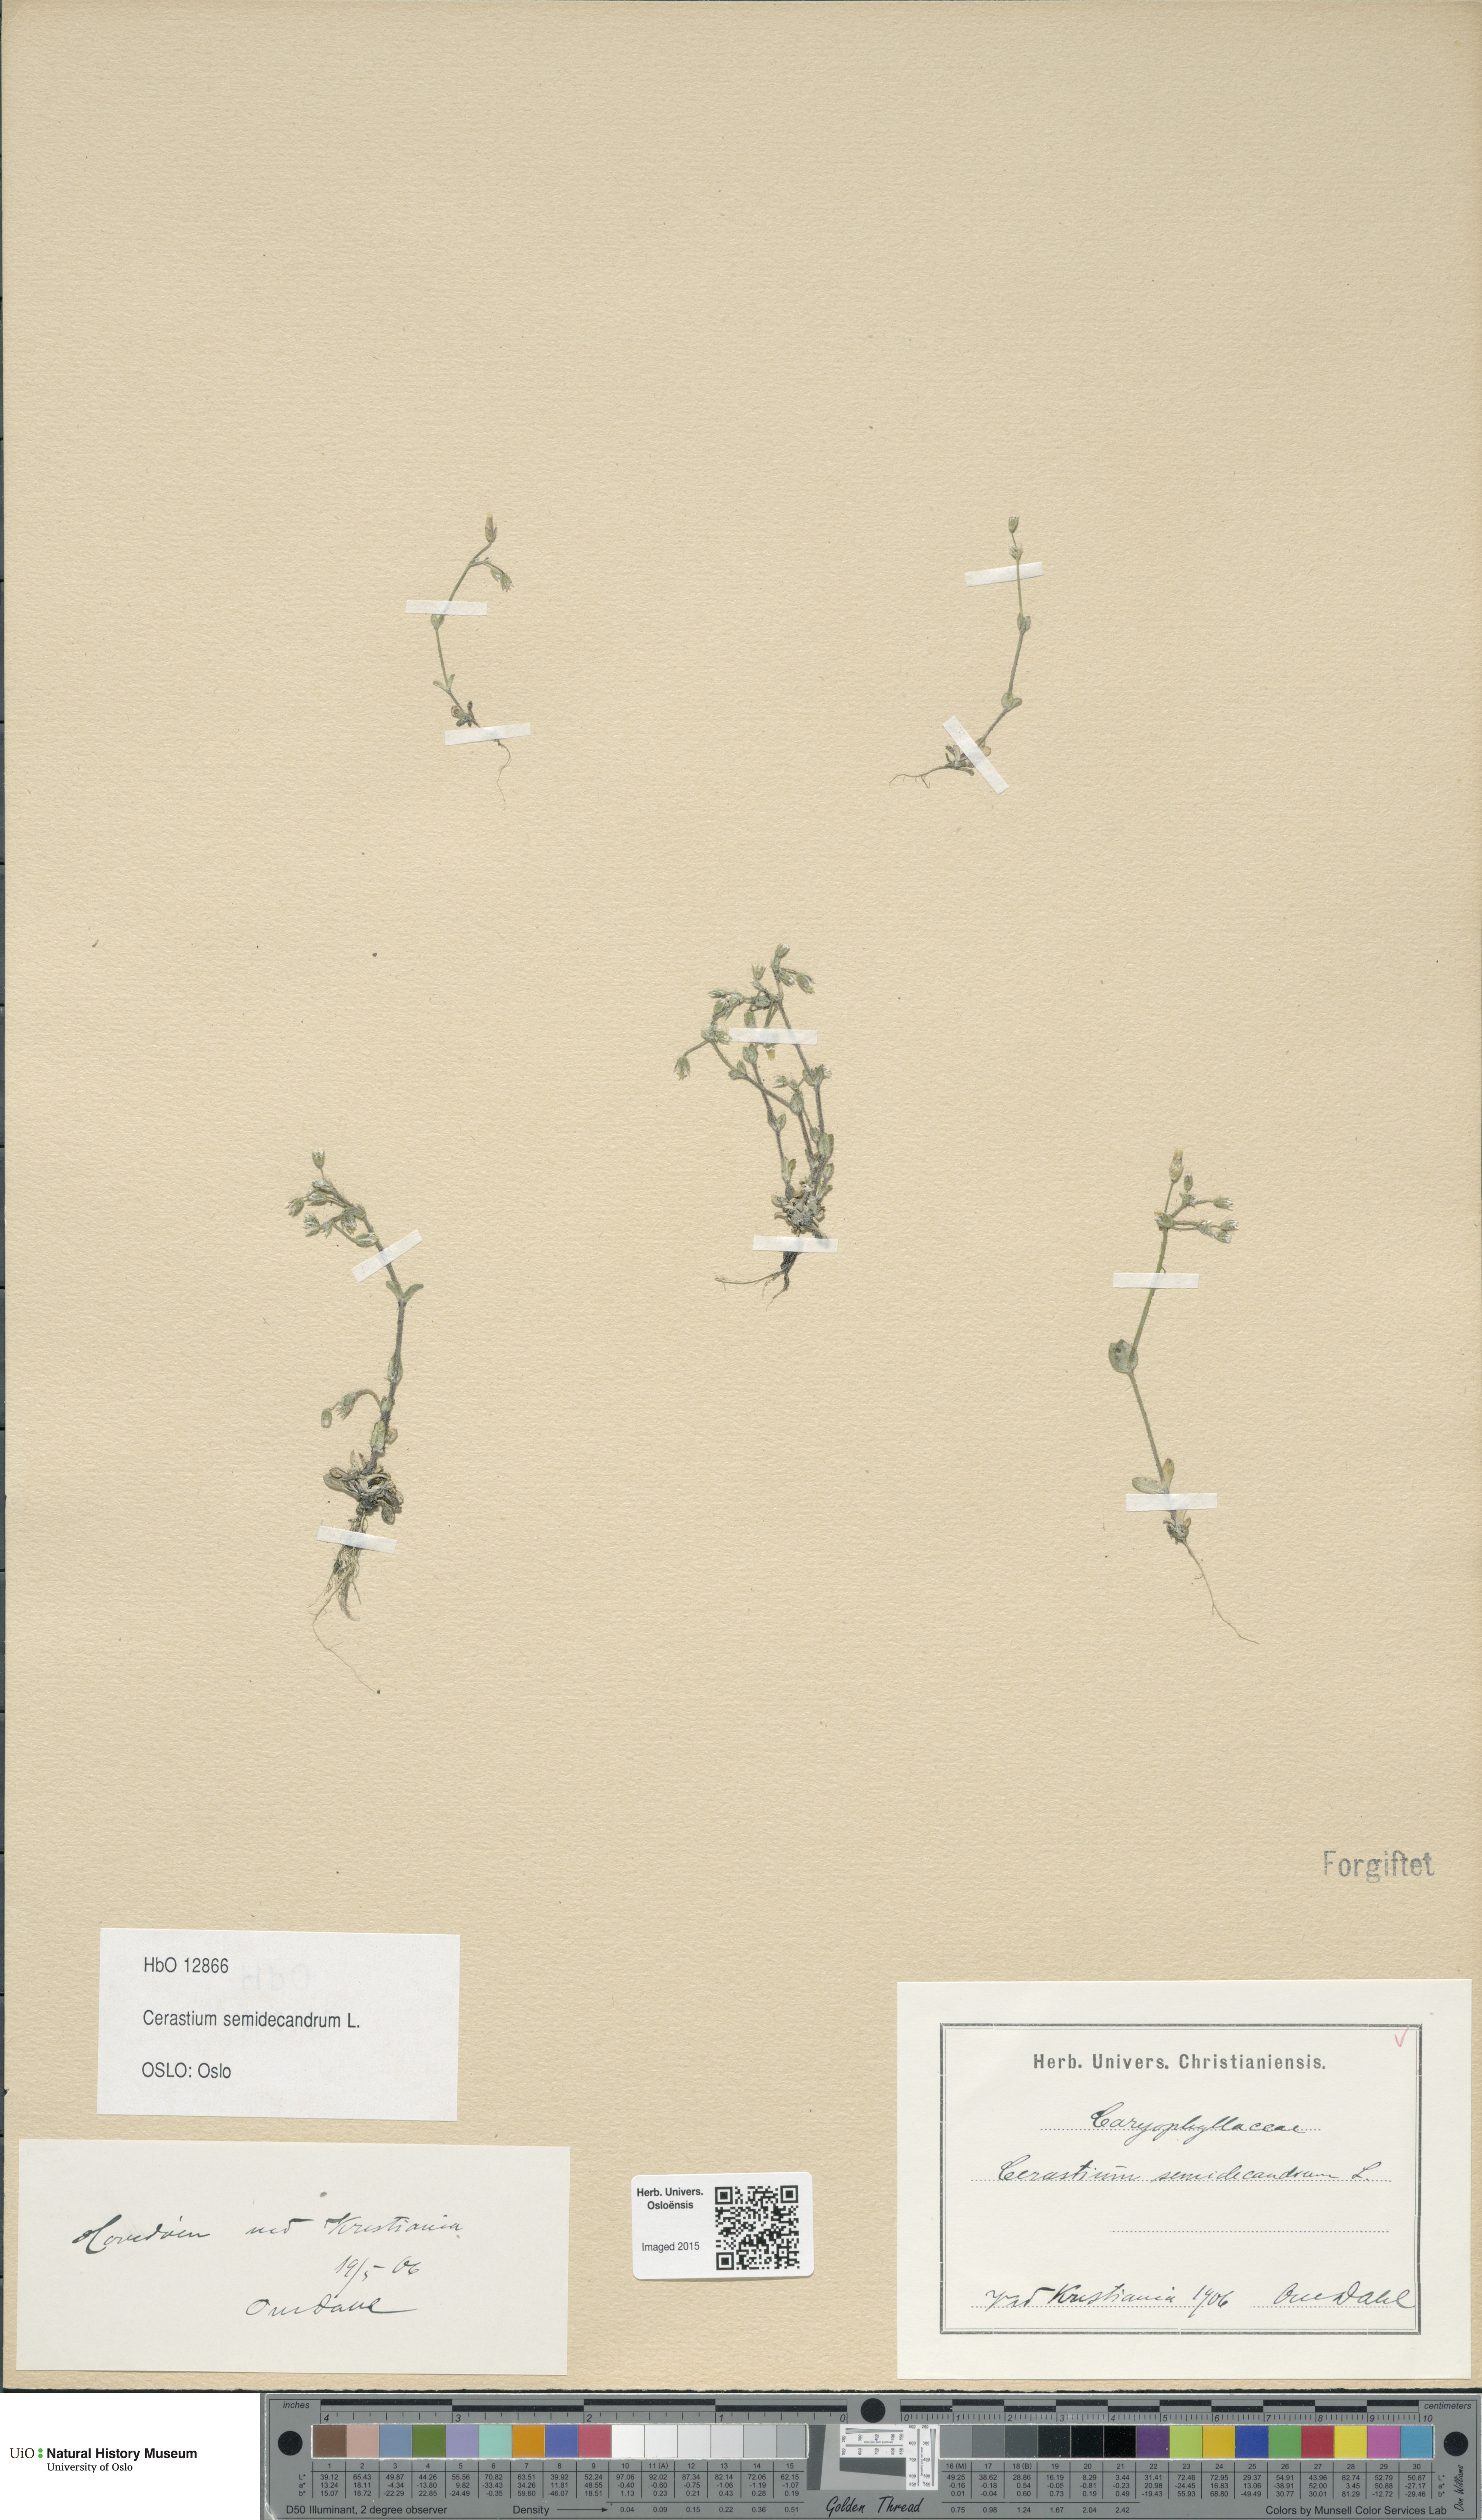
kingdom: Plantae
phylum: Tracheophyta
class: Magnoliopsida
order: Caryophyllales
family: Caryophyllaceae
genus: Cerastium
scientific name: Cerastium semidecandrum
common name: Little mouse-ear
